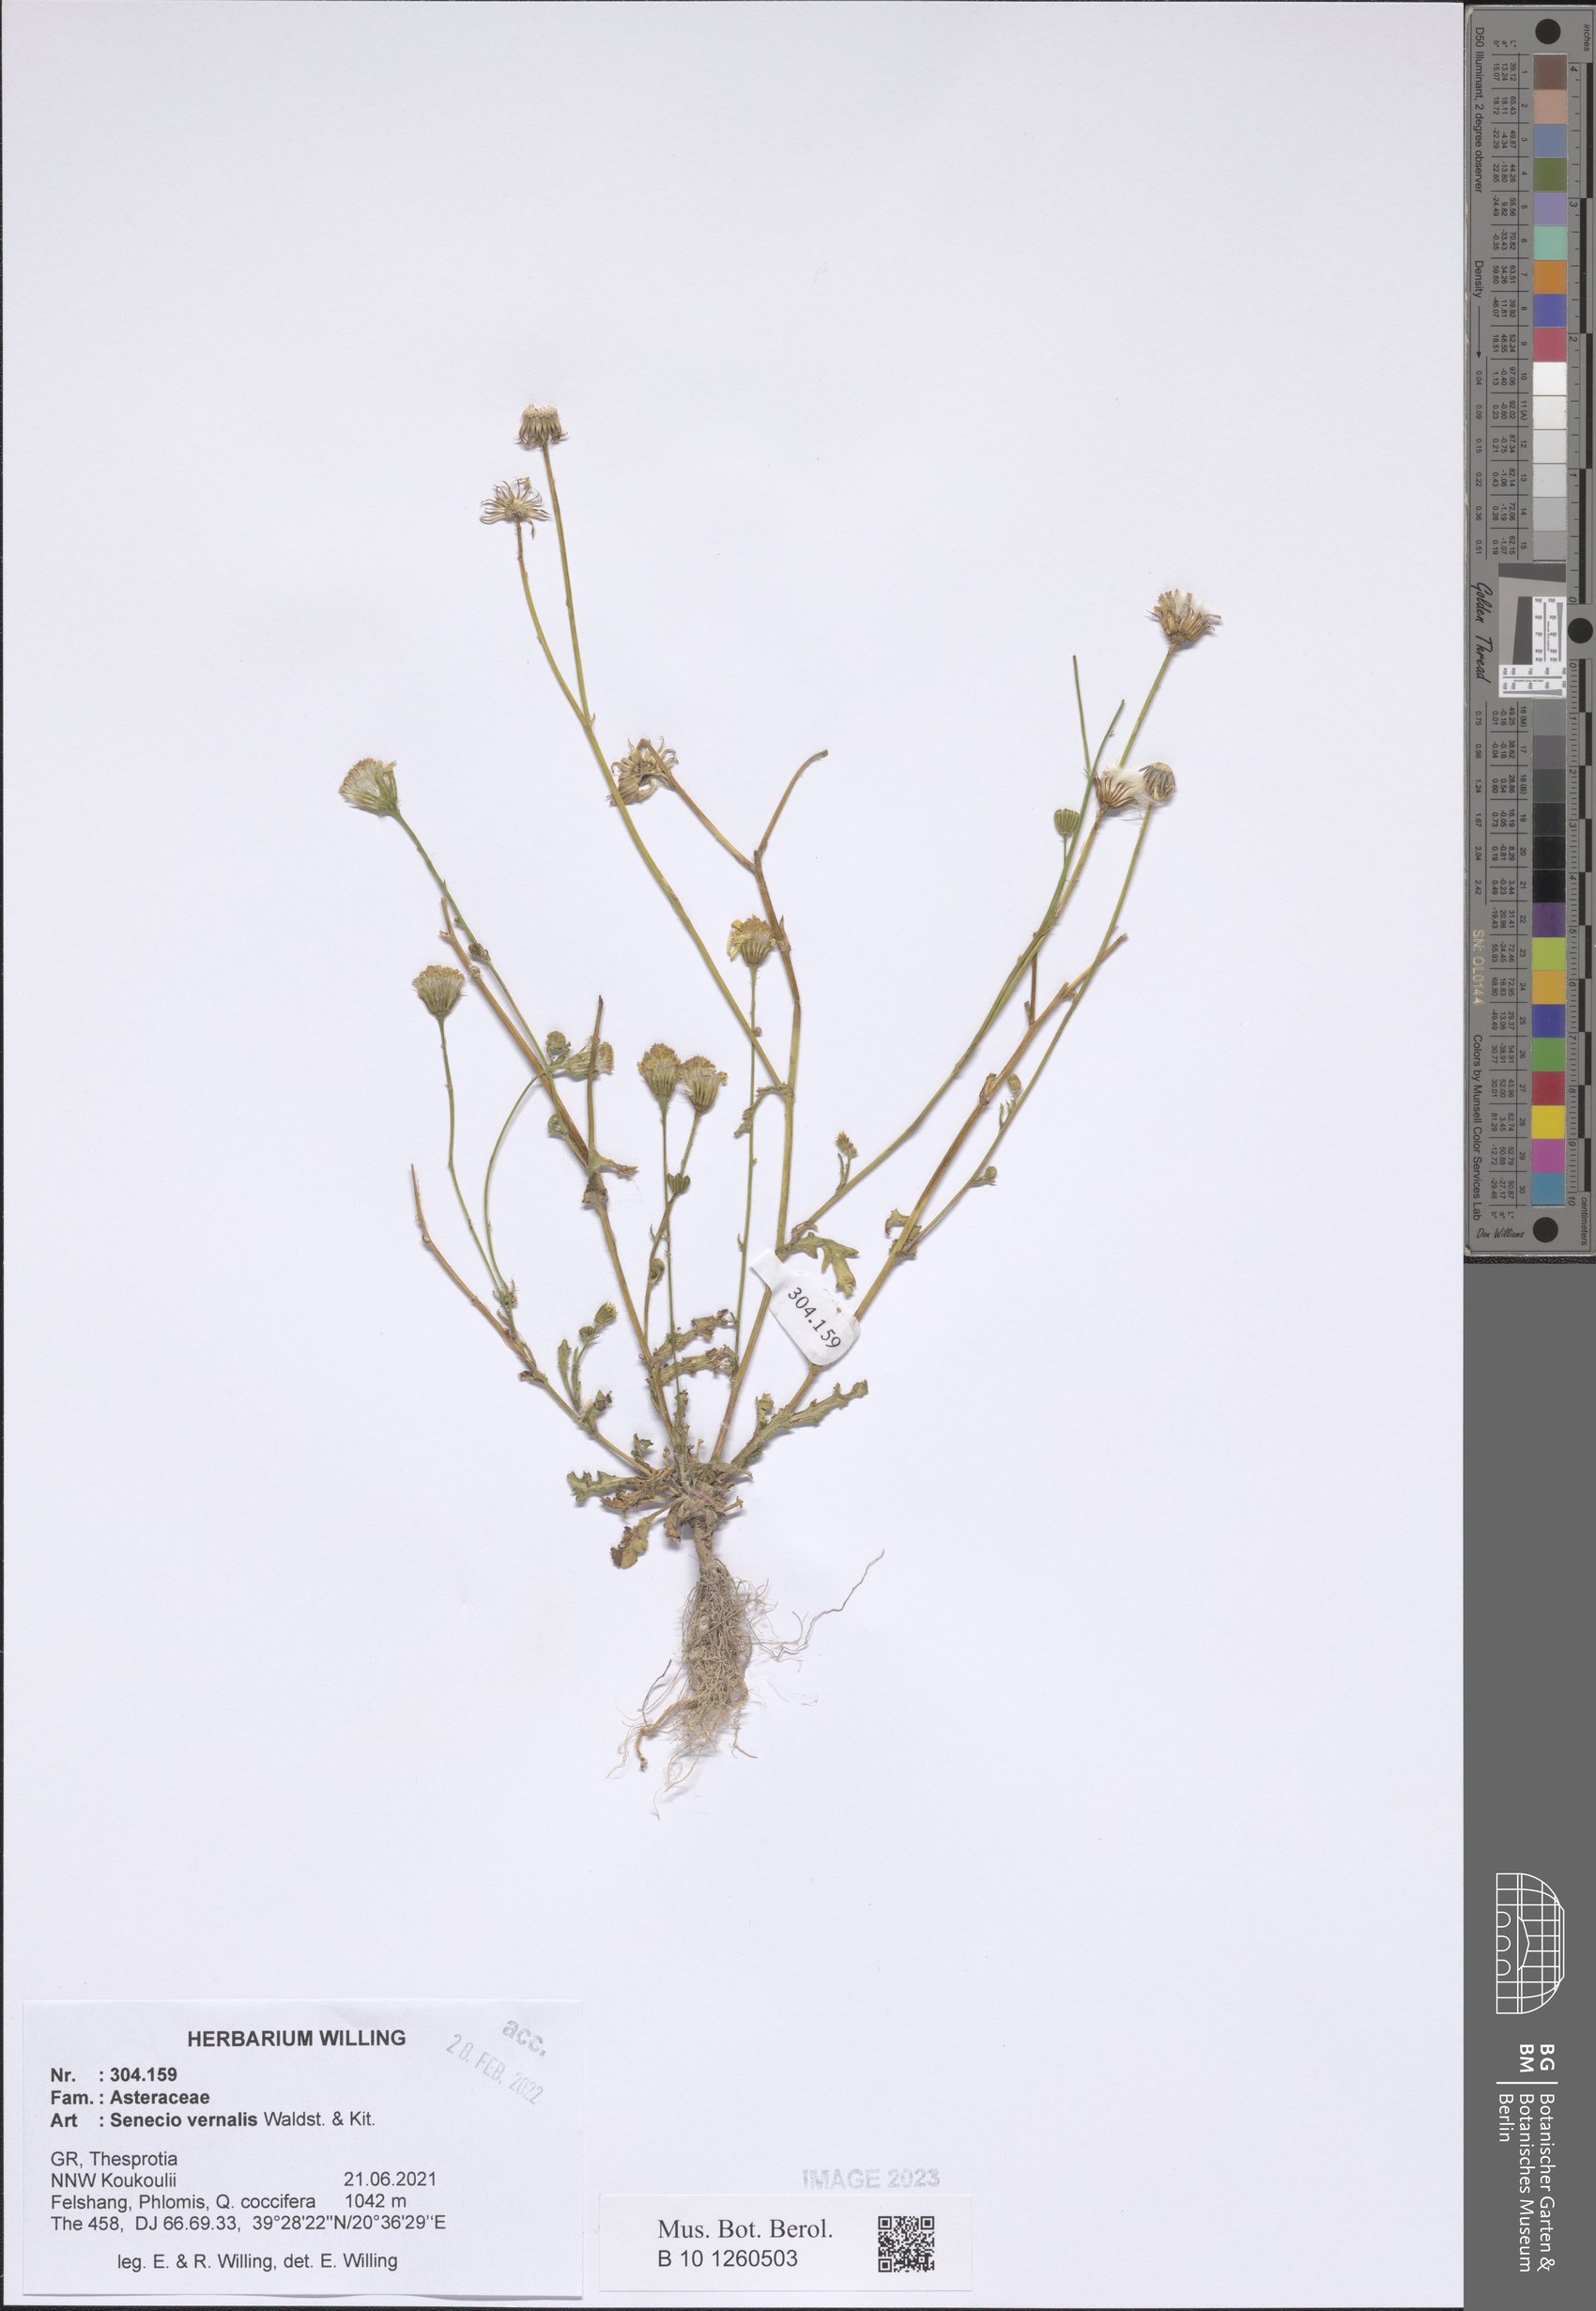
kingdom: Plantae
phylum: Tracheophyta
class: Magnoliopsida
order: Asterales
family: Asteraceae
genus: Senecio
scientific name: Senecio vernalis
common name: Eastern groundsel
